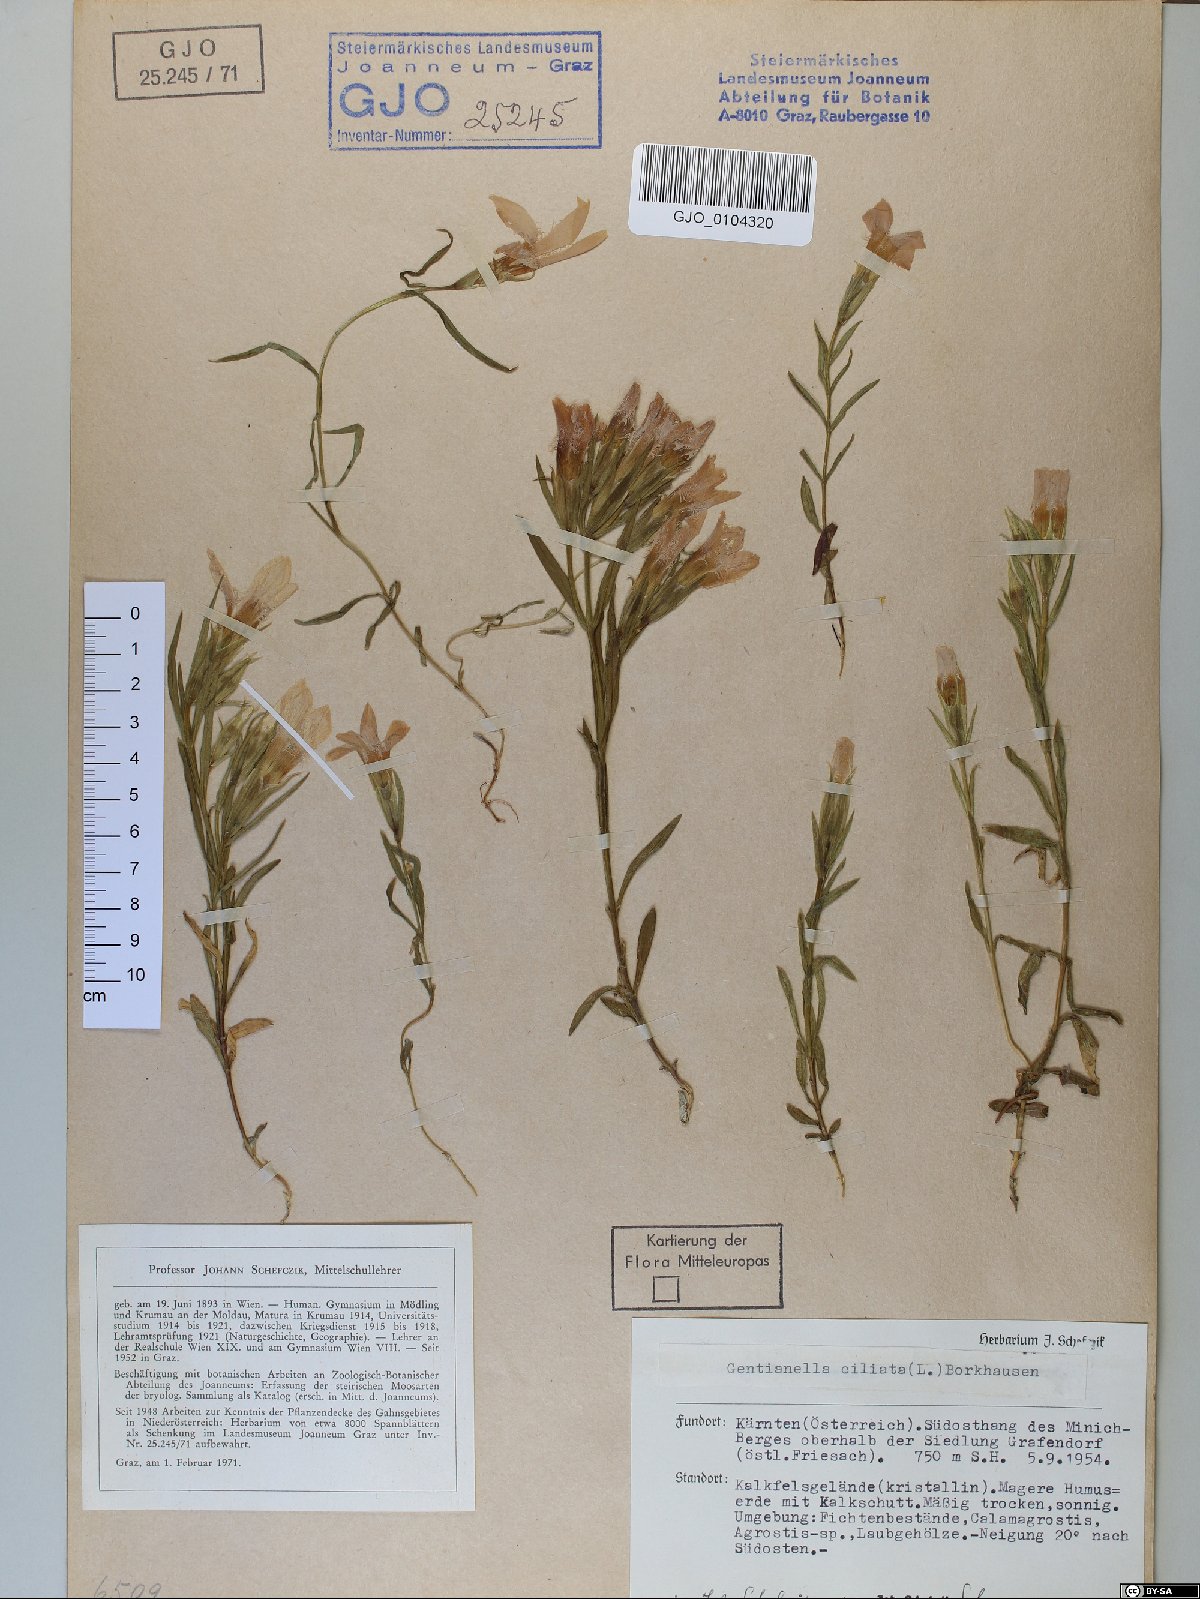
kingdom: Plantae
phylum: Tracheophyta
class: Magnoliopsida
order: Gentianales
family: Gentianaceae
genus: Gentianopsis
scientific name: Gentianopsis ciliata
